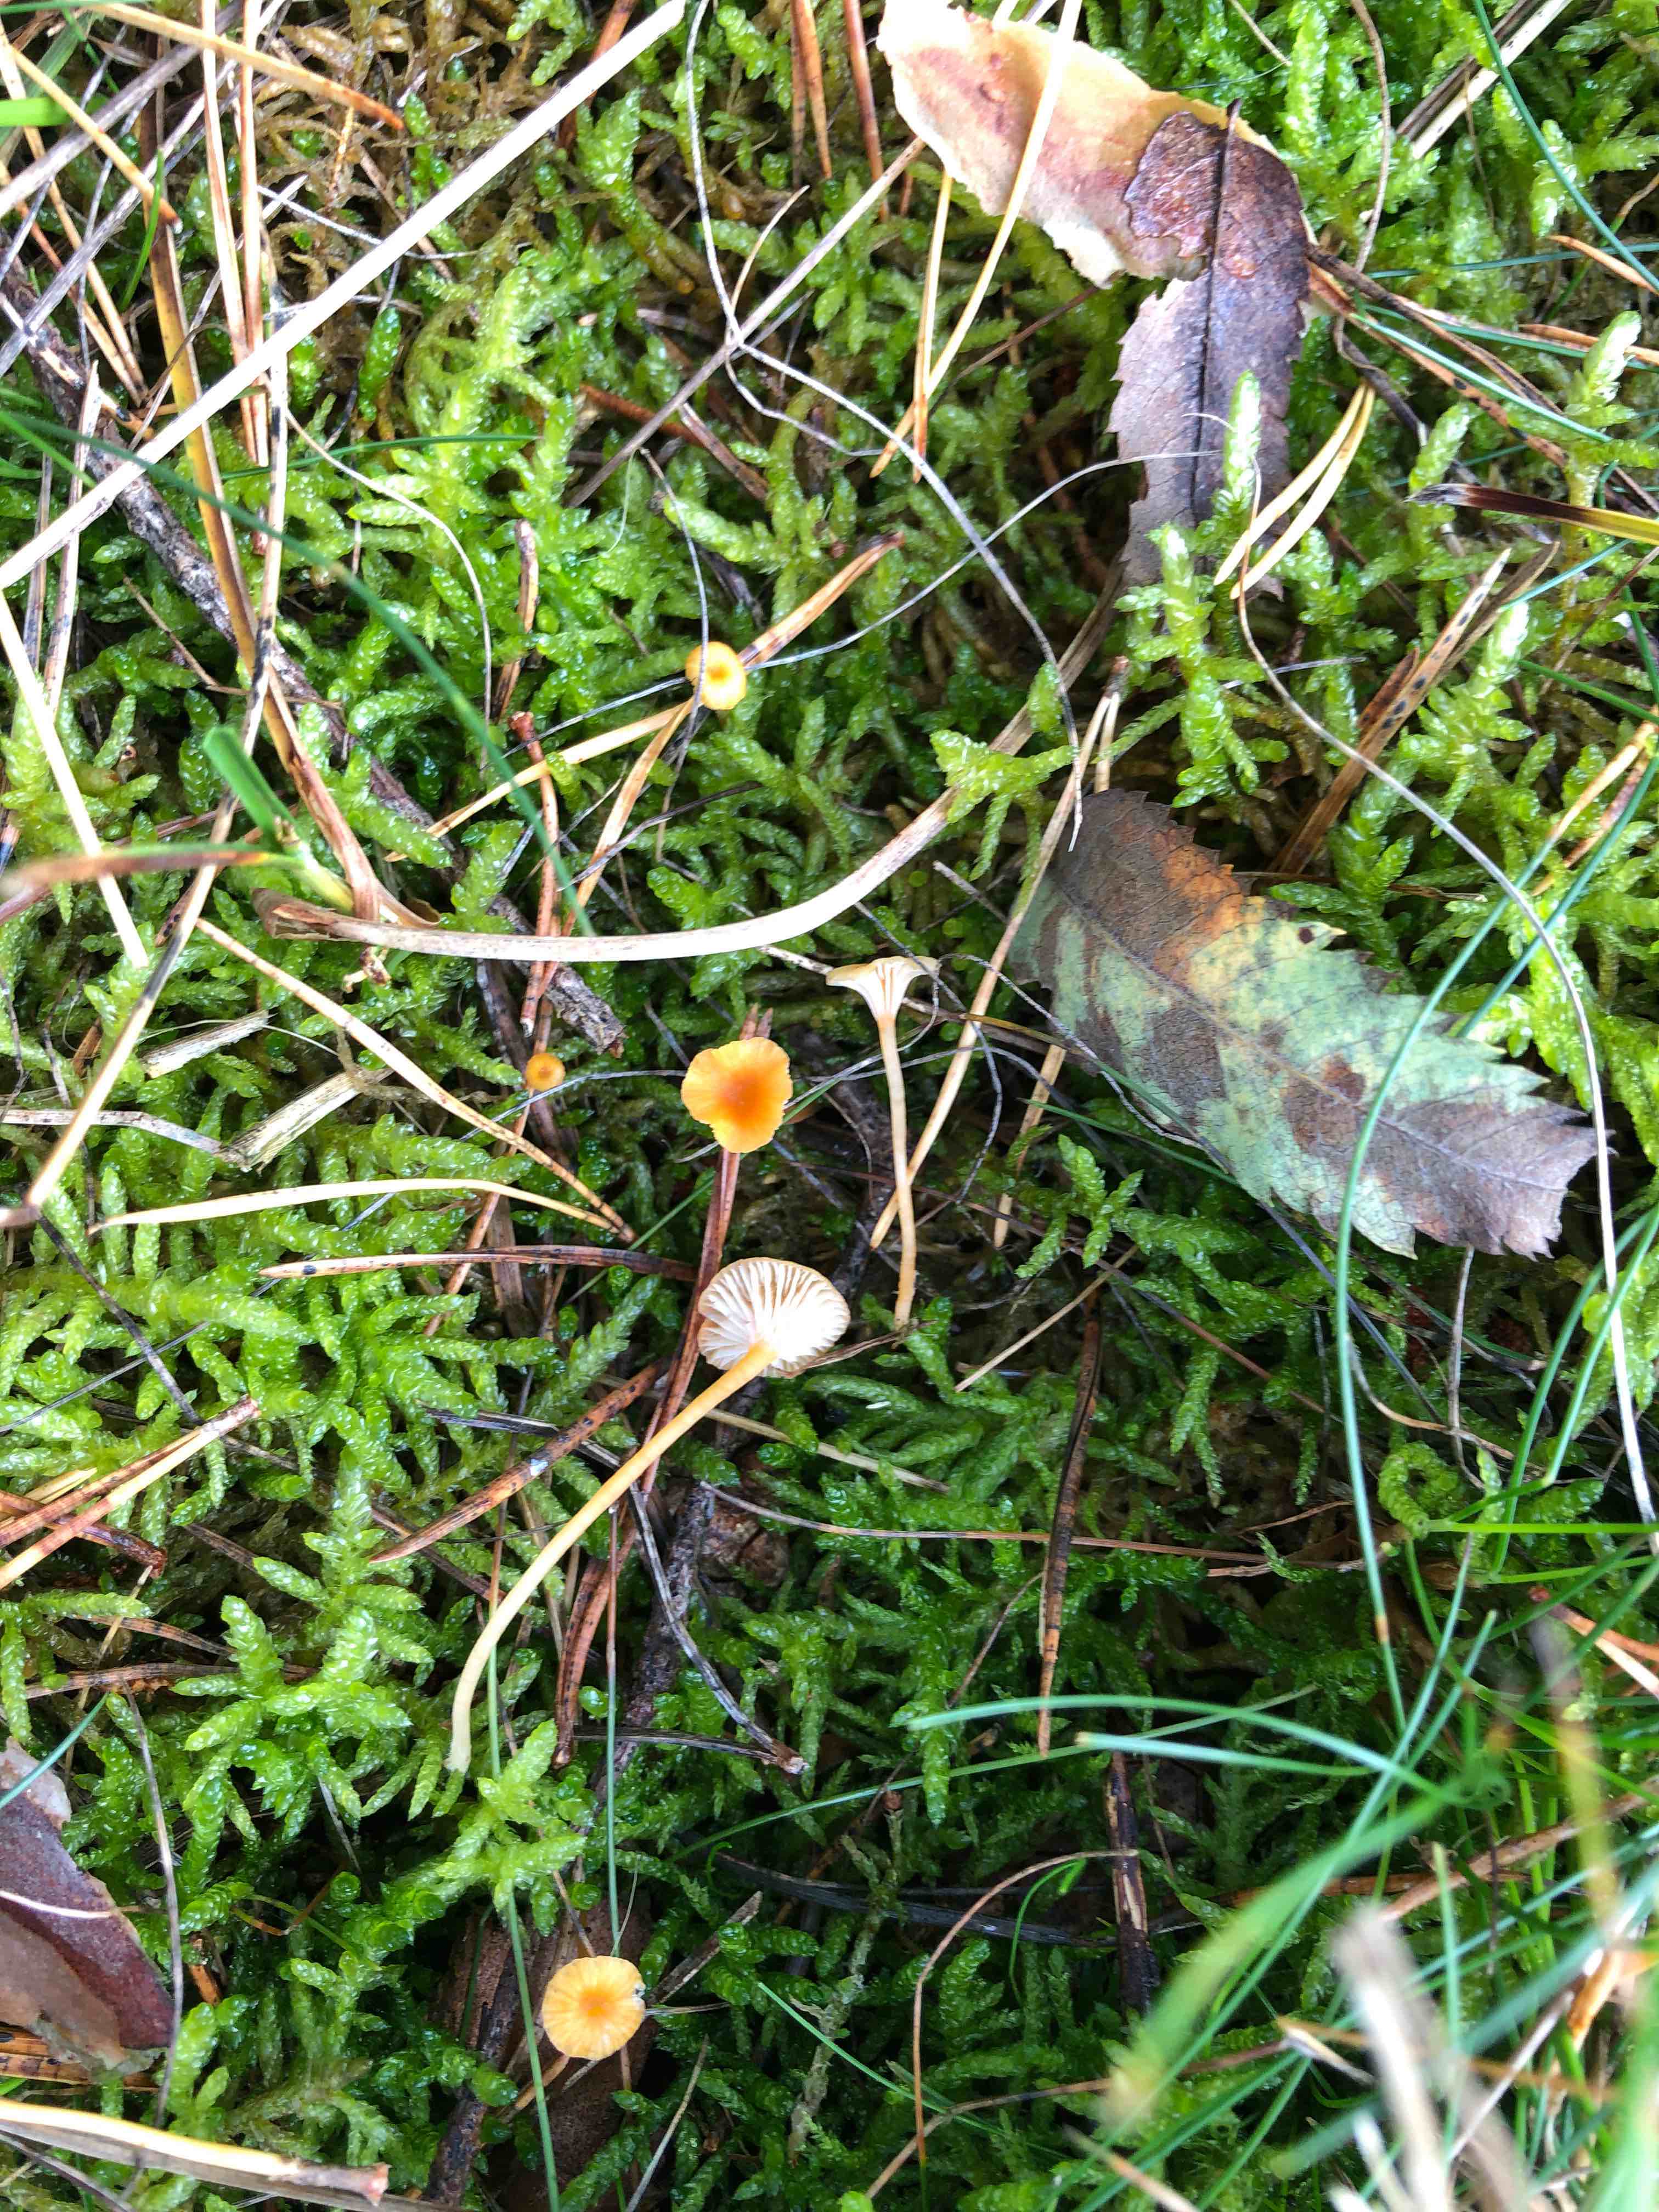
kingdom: Fungi
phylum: Basidiomycota
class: Agaricomycetes
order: Hymenochaetales
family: Rickenellaceae
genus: Rickenella
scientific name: Rickenella fibula
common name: orange mosnavlehat
